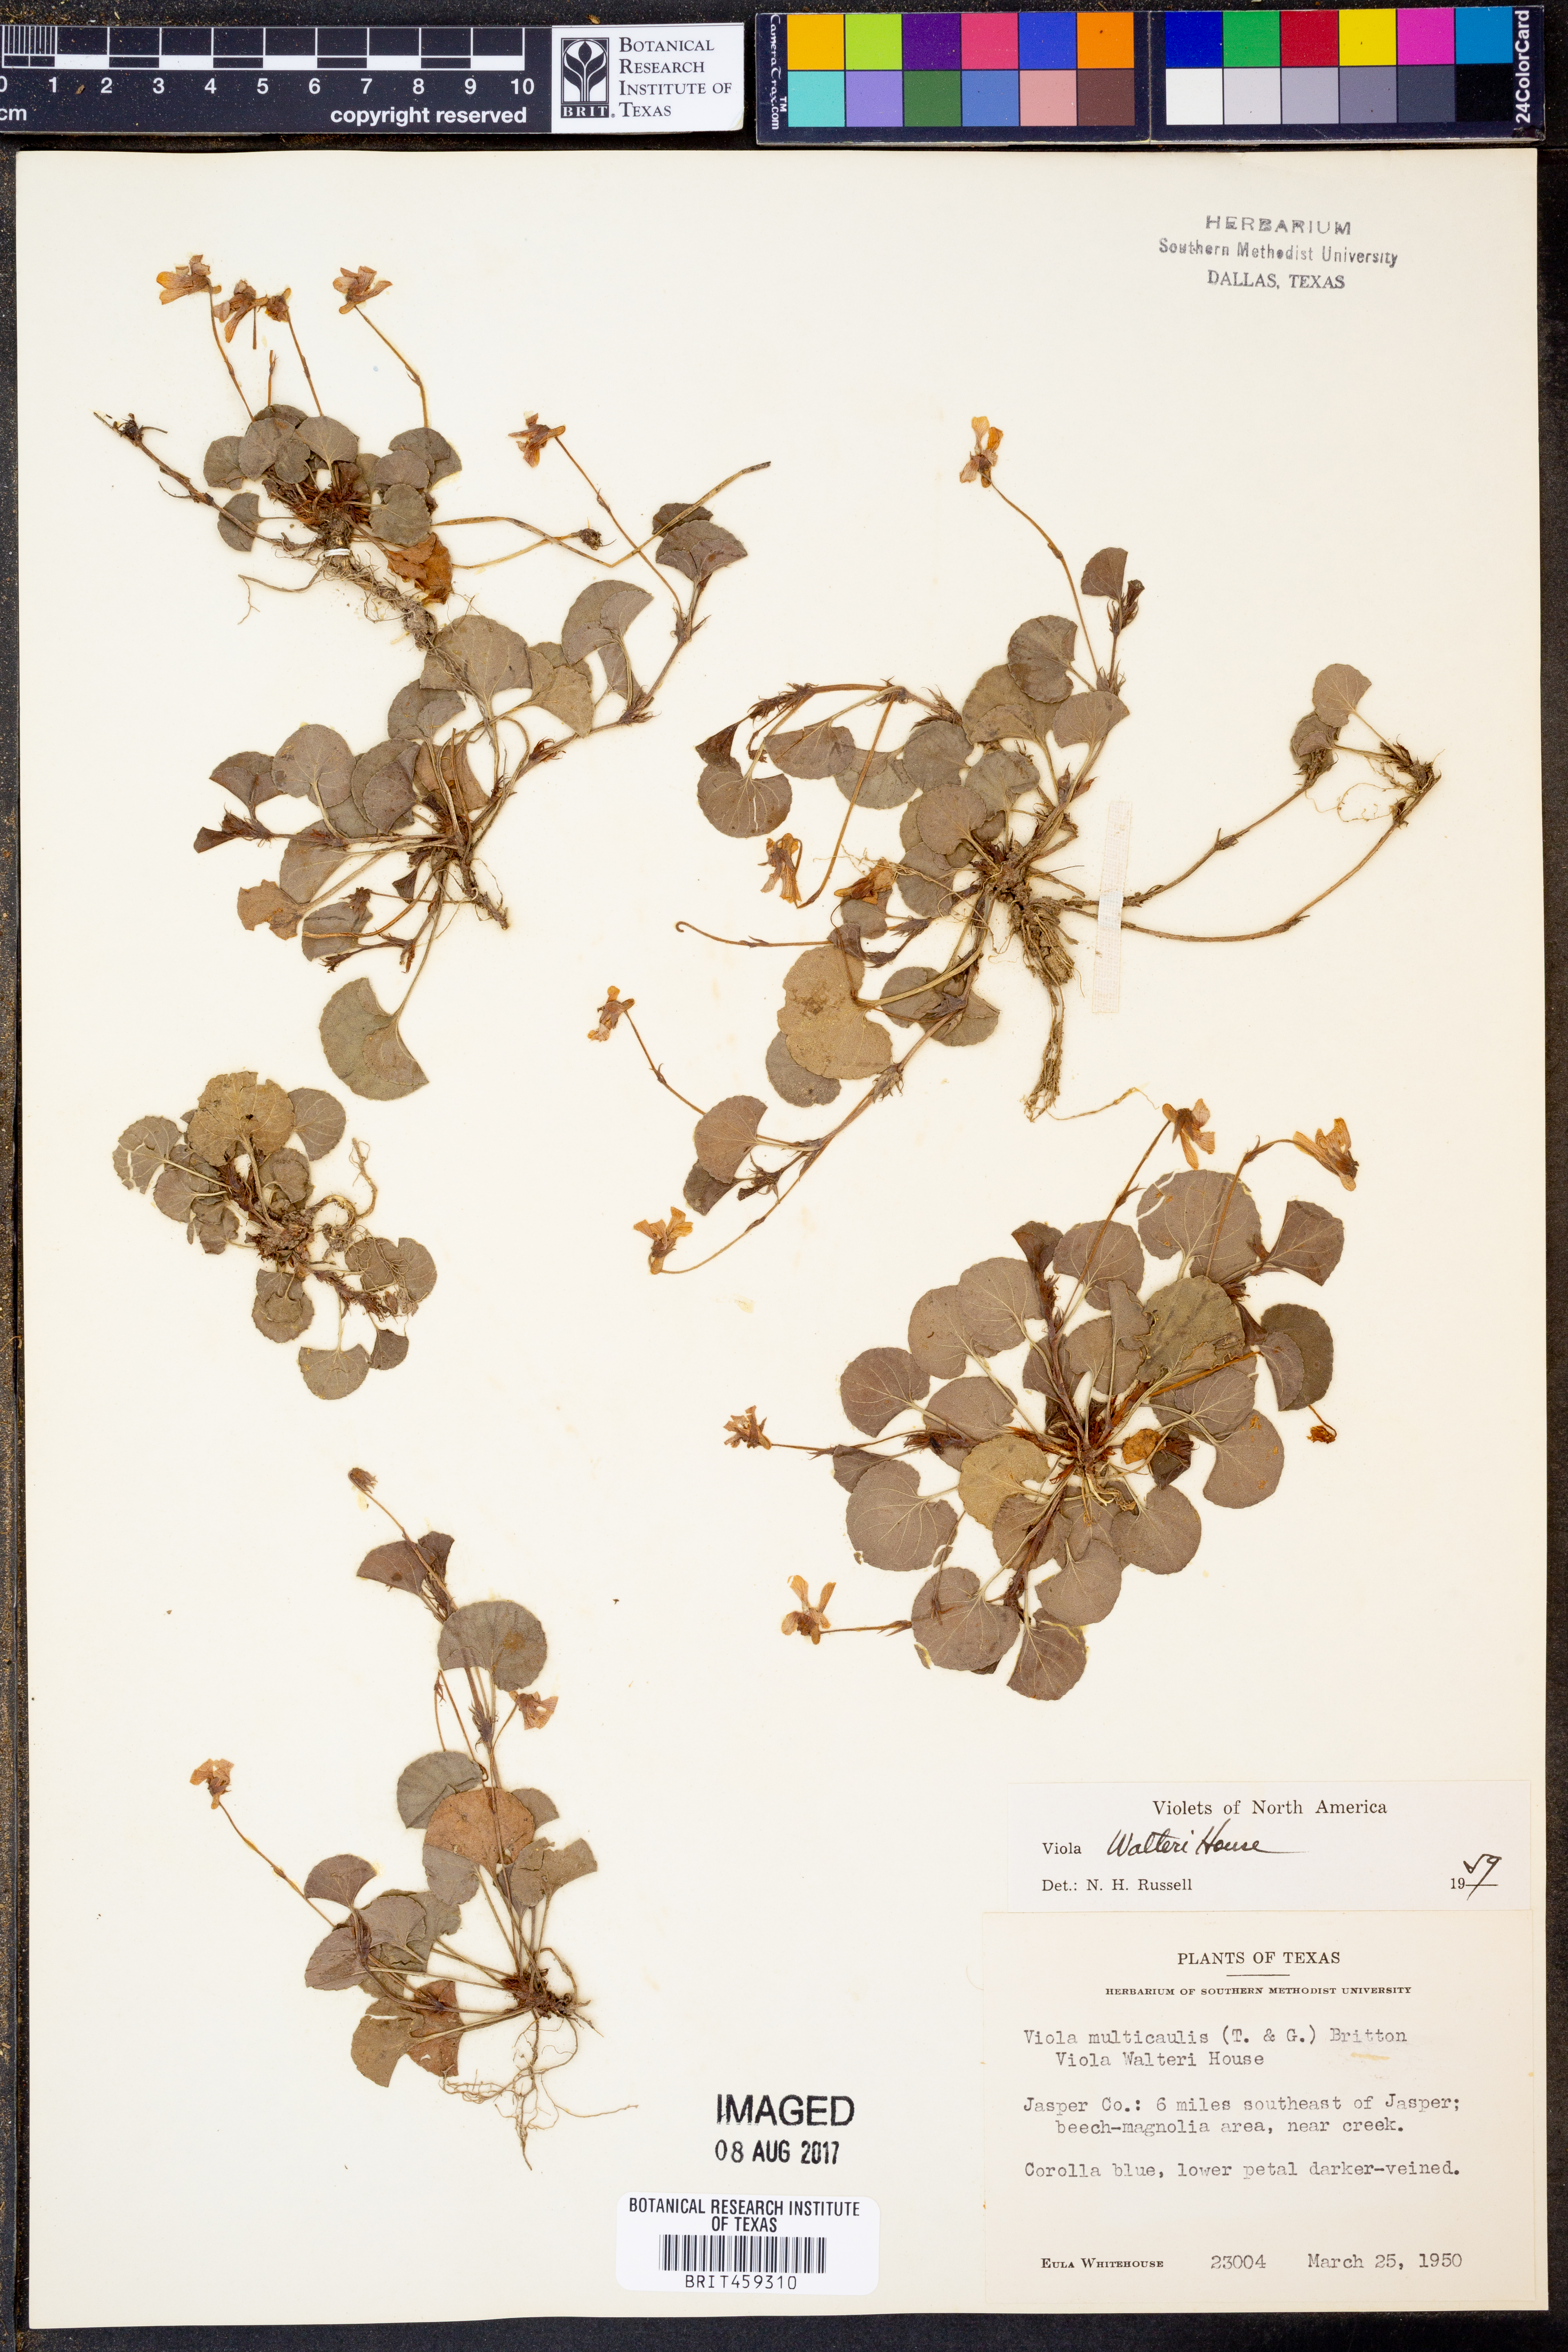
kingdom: Plantae
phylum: Tracheophyta
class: Magnoliopsida
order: Malpighiales
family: Violaceae
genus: Viola
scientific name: Viola walteri
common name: Prostrate southern violet
